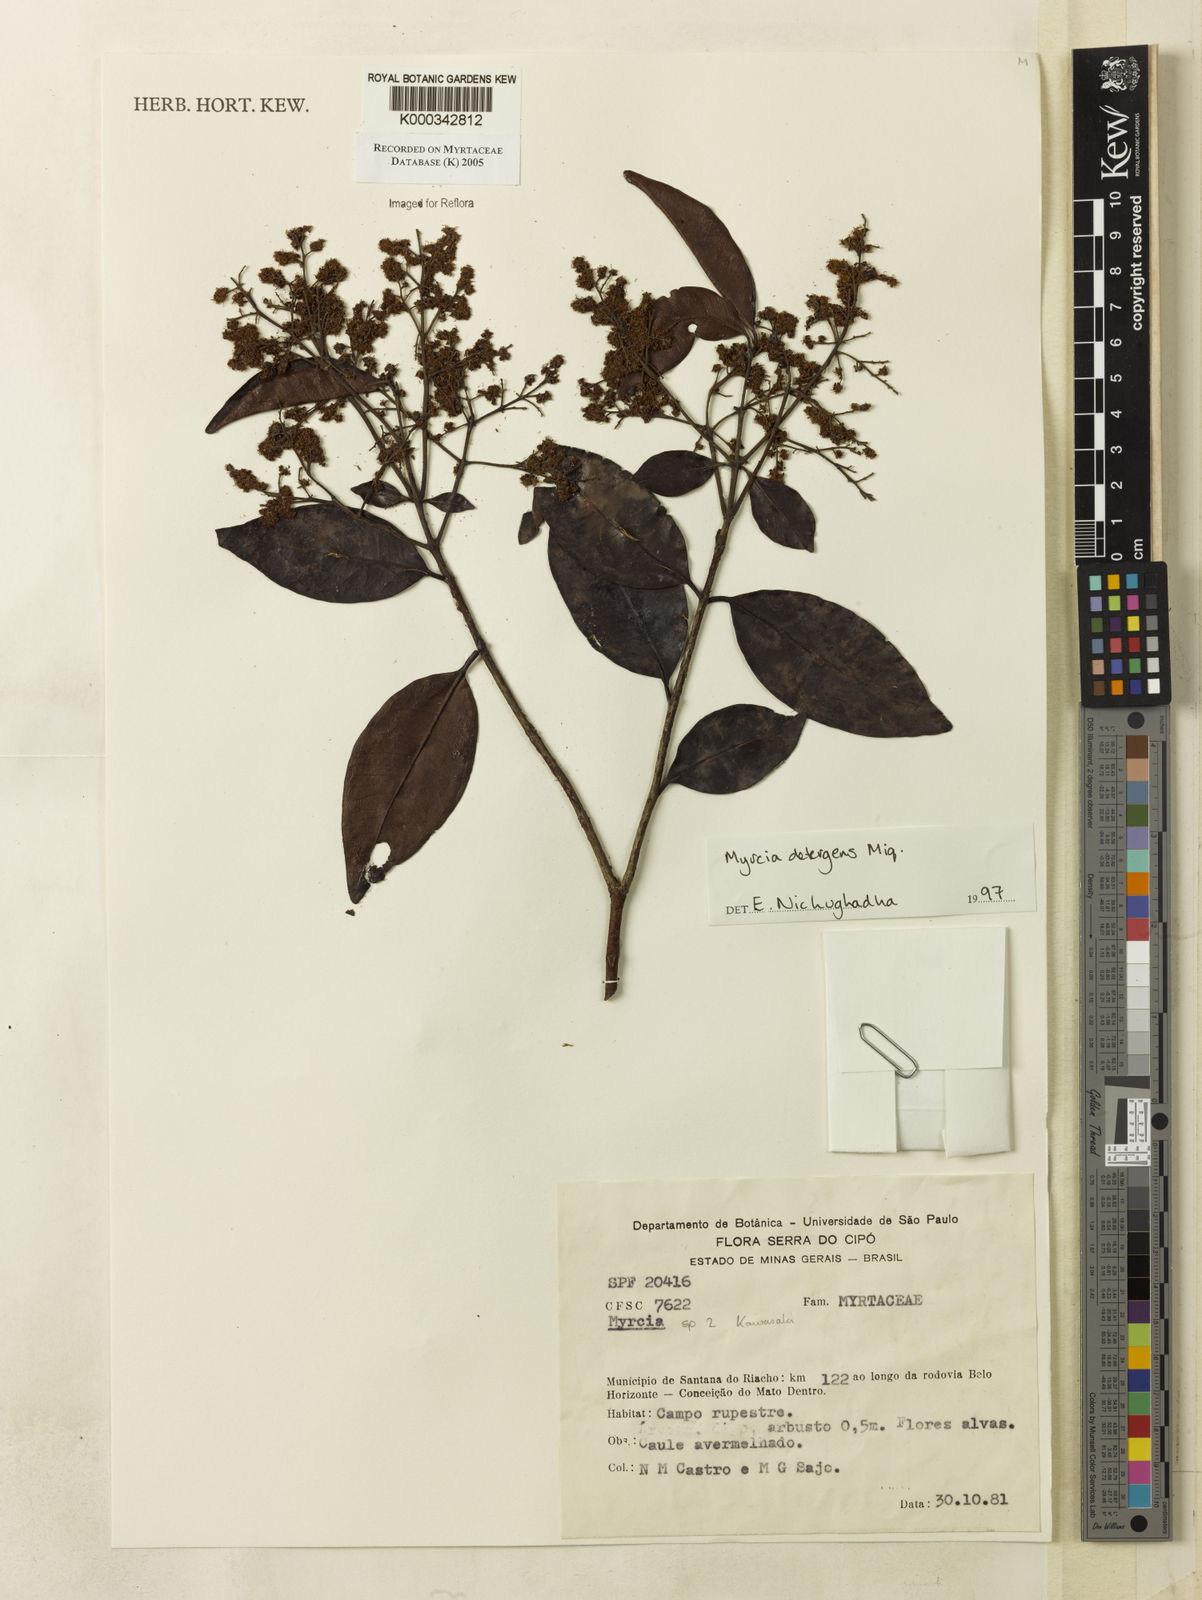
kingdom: Plantae
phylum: Tracheophyta
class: Magnoliopsida
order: Myrtales
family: Myrtaceae
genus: Myrcia
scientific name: Myrcia amazonica
